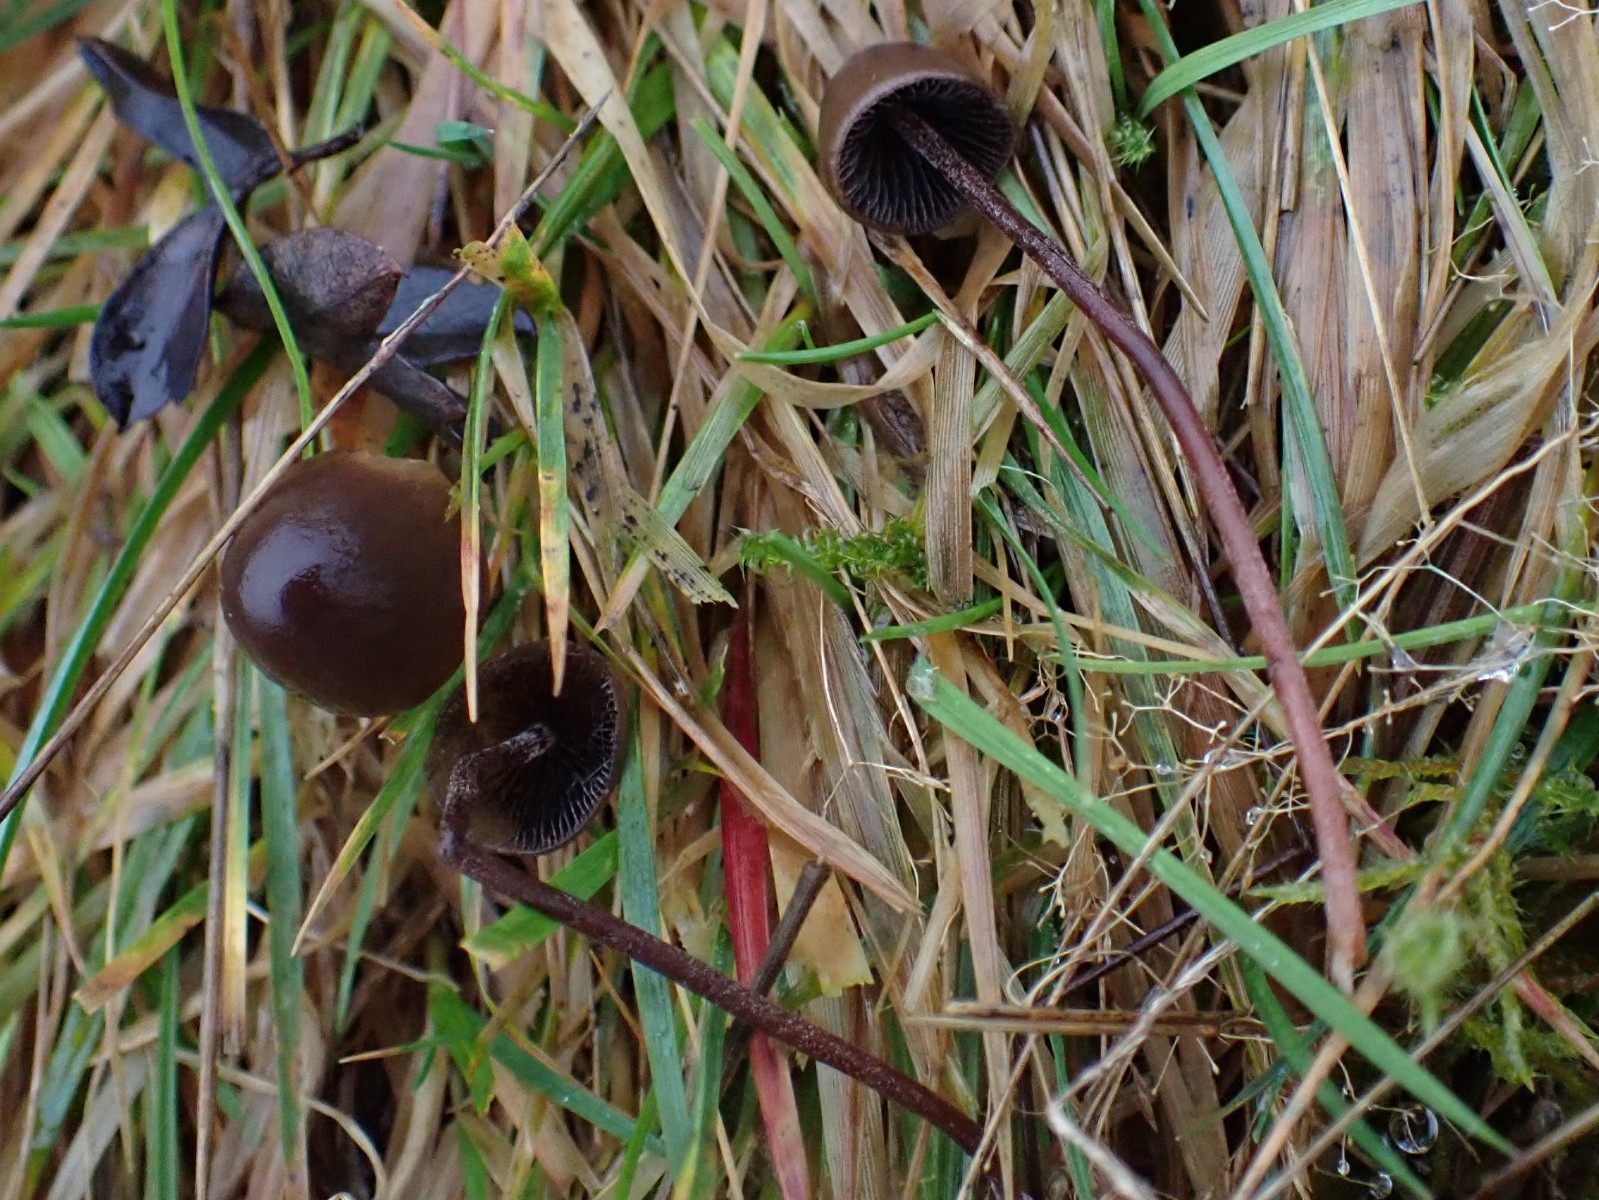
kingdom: Fungi
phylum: Basidiomycota
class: Agaricomycetes
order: Agaricales
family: Bolbitiaceae
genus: Panaeolus
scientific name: Panaeolus acuminatus
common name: høj glanshat
